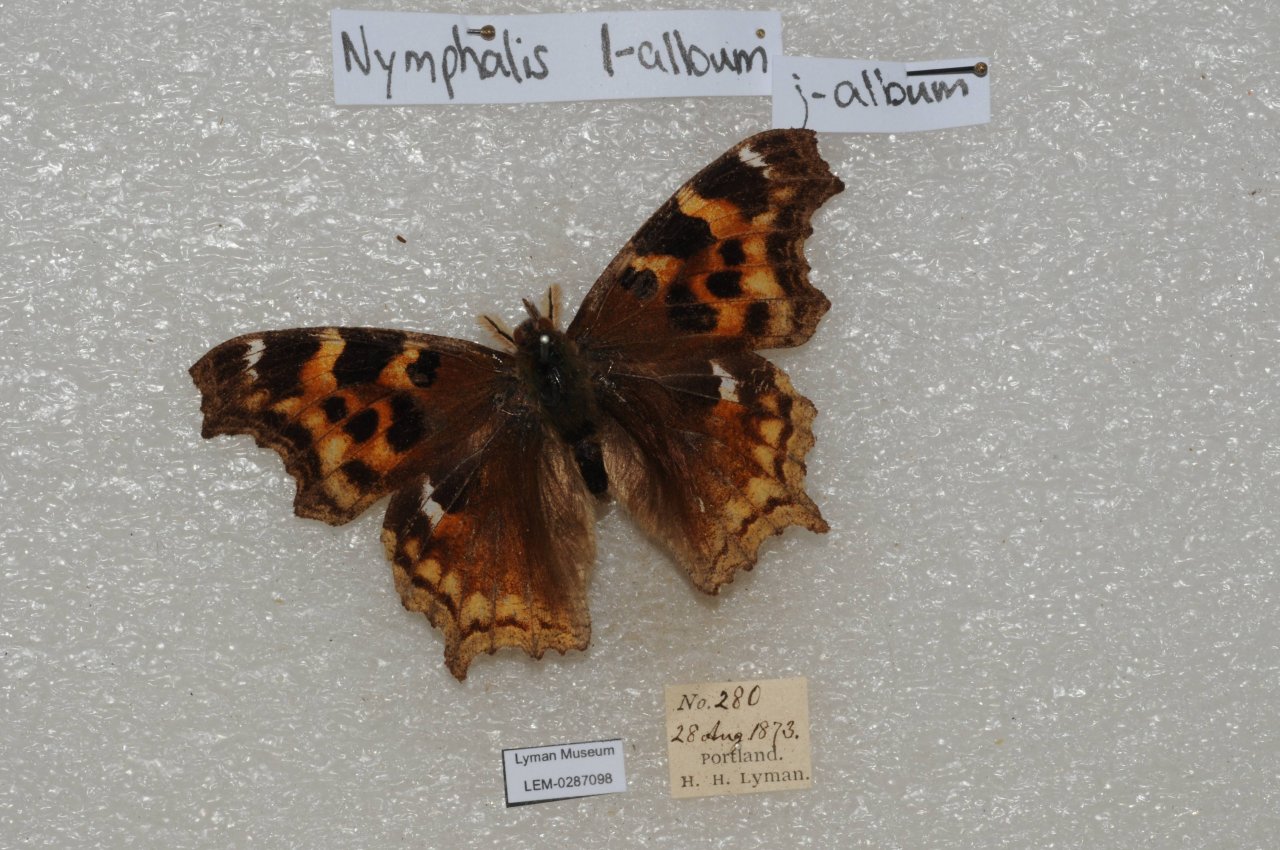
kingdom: Animalia
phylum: Arthropoda
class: Insecta
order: Lepidoptera
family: Nymphalidae
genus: Polygonia
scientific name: Polygonia vaualbum
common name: Compton Tortoiseshell
